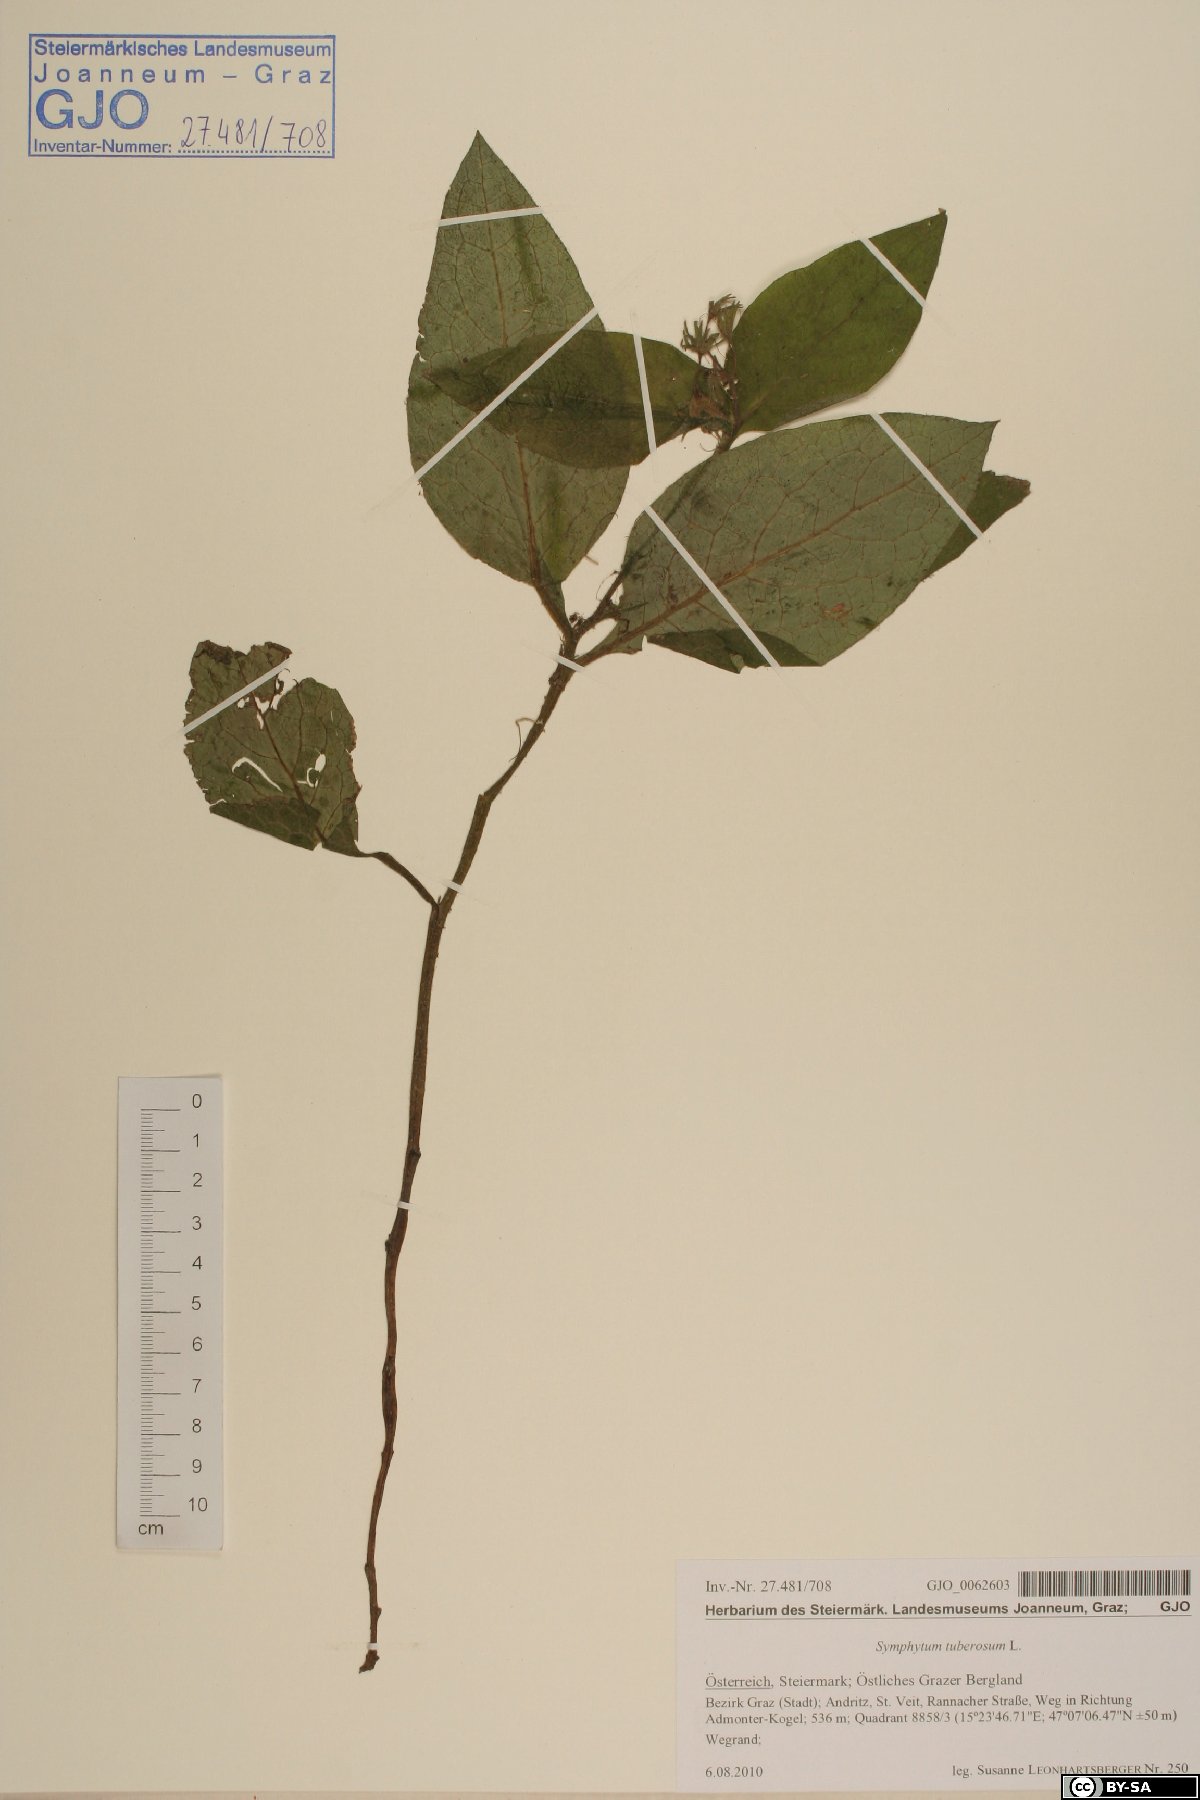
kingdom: Plantae
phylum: Tracheophyta
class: Magnoliopsida
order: Boraginales
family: Boraginaceae
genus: Symphytum
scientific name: Symphytum tuberosum
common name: Tuberous comfrey
